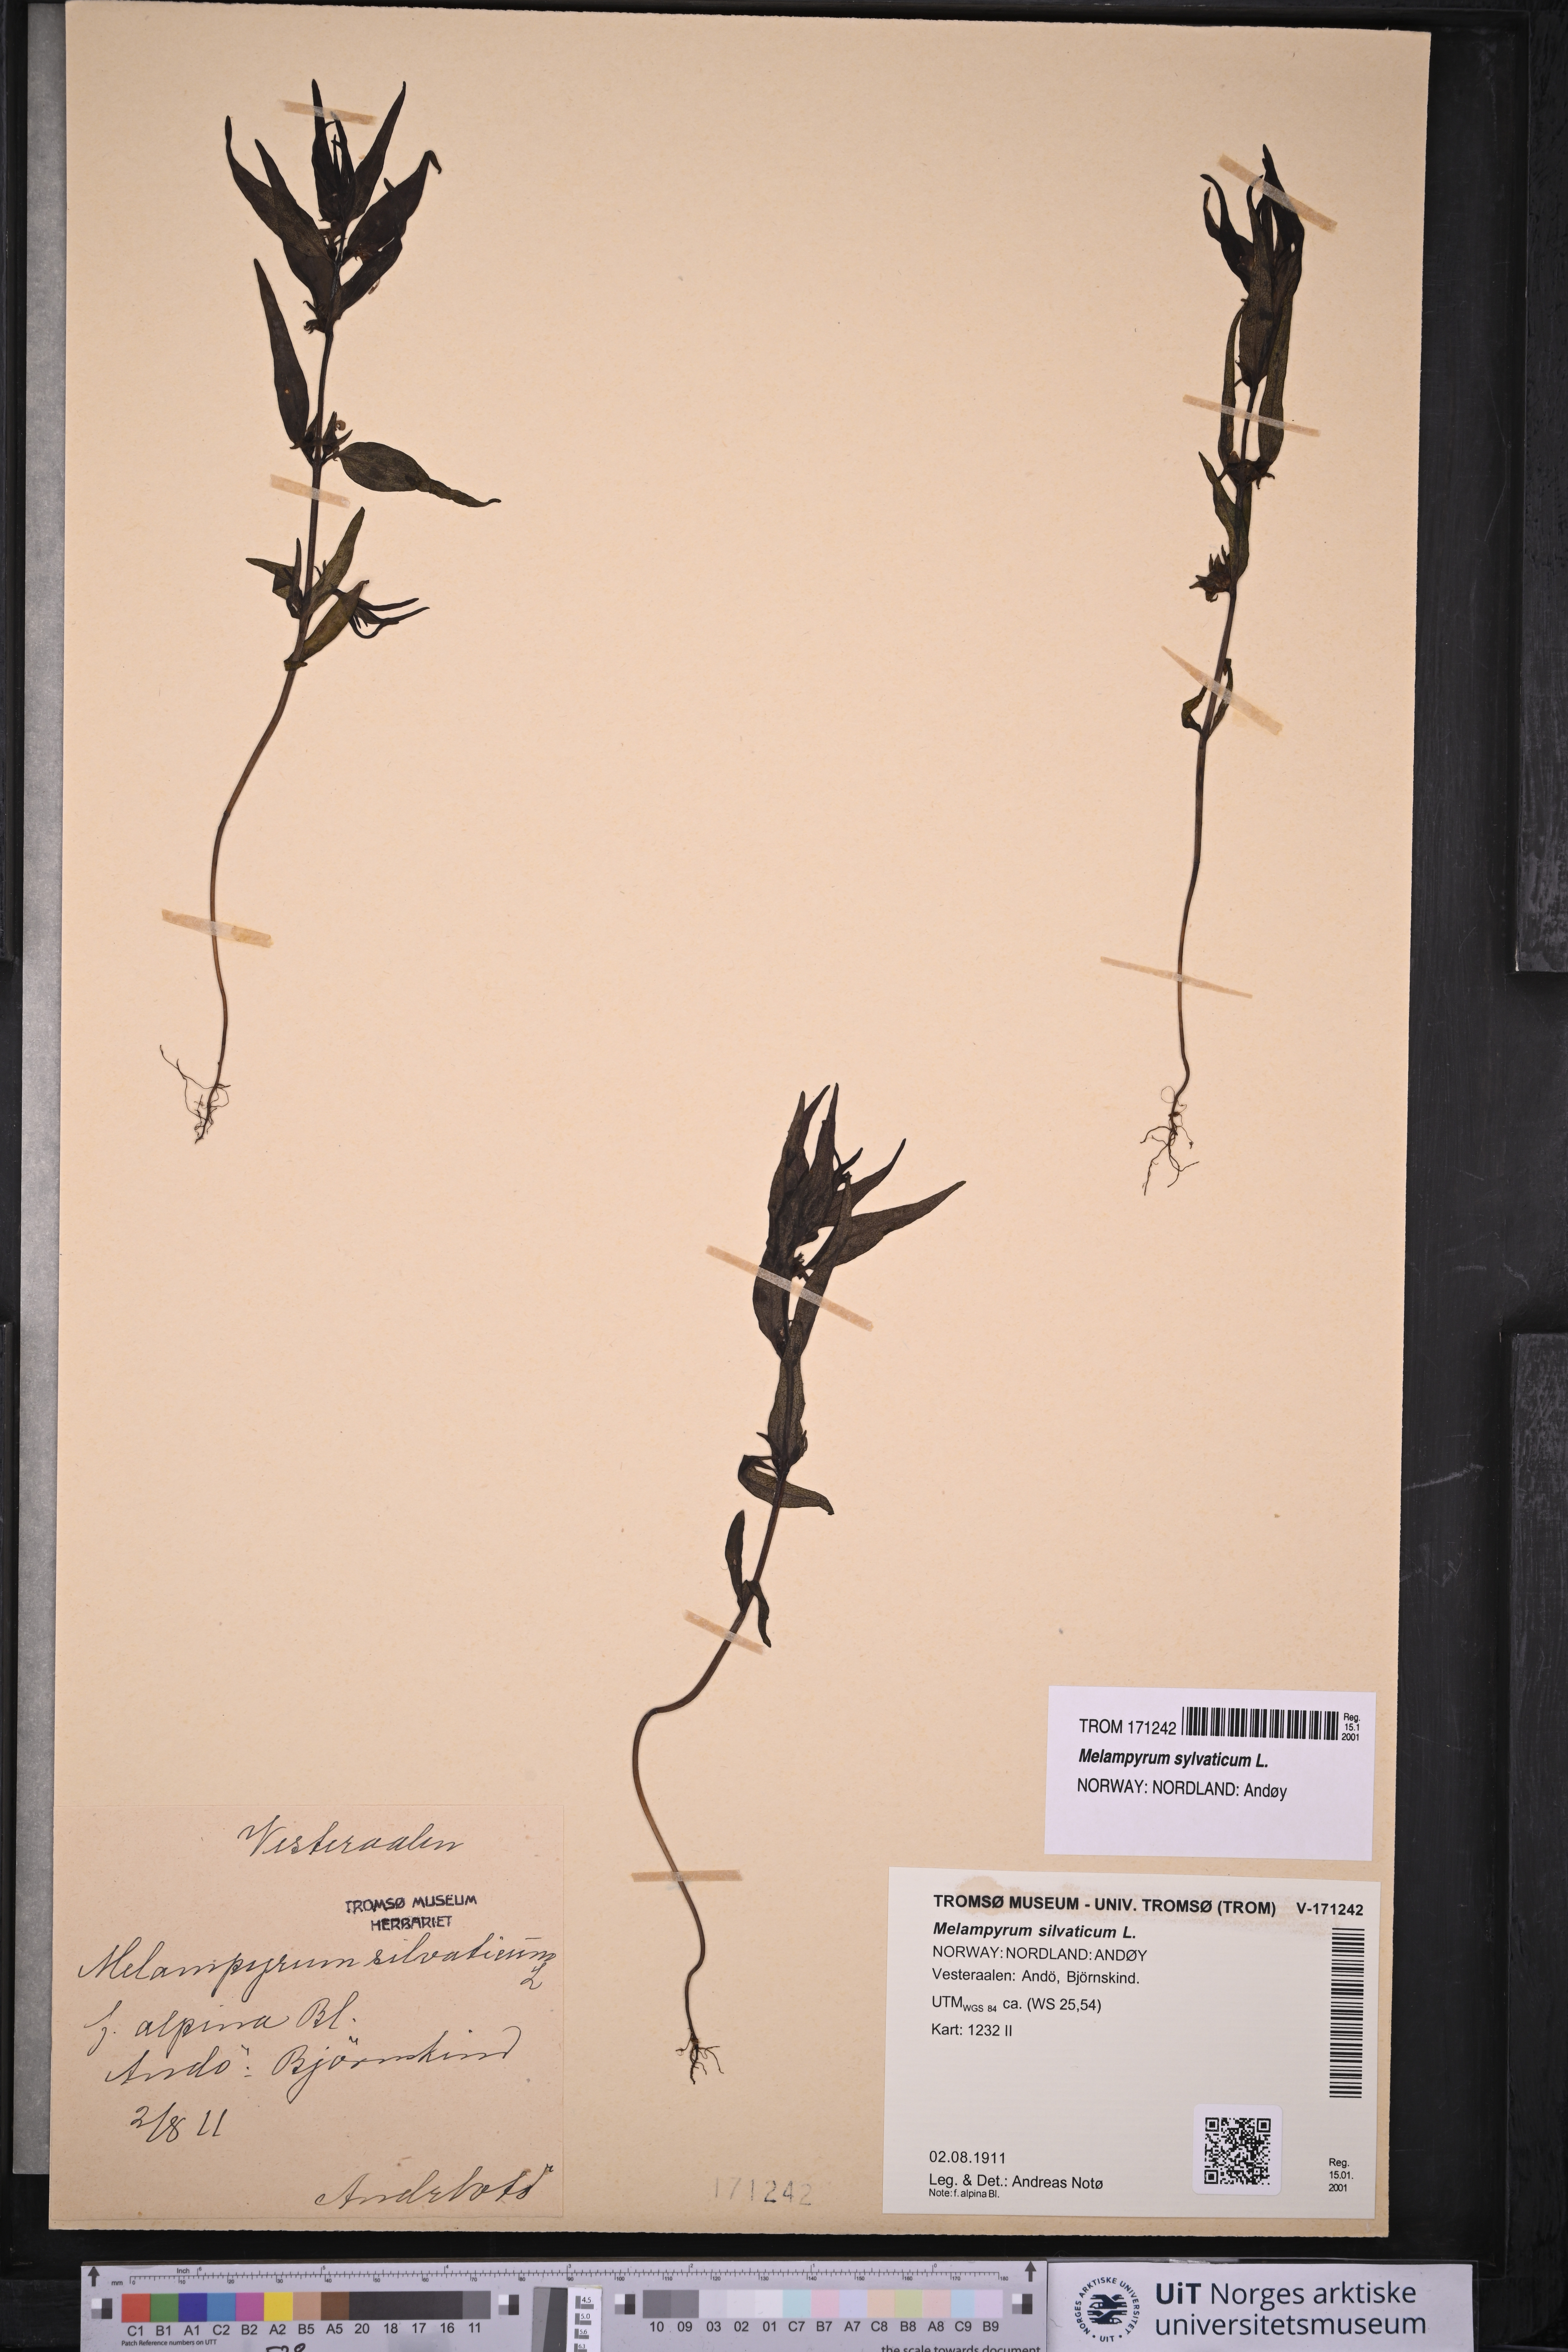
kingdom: Plantae
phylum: Tracheophyta
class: Magnoliopsida
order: Lamiales
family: Orobanchaceae
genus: Melampyrum
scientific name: Melampyrum sylvaticum
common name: Small cow-wheat
